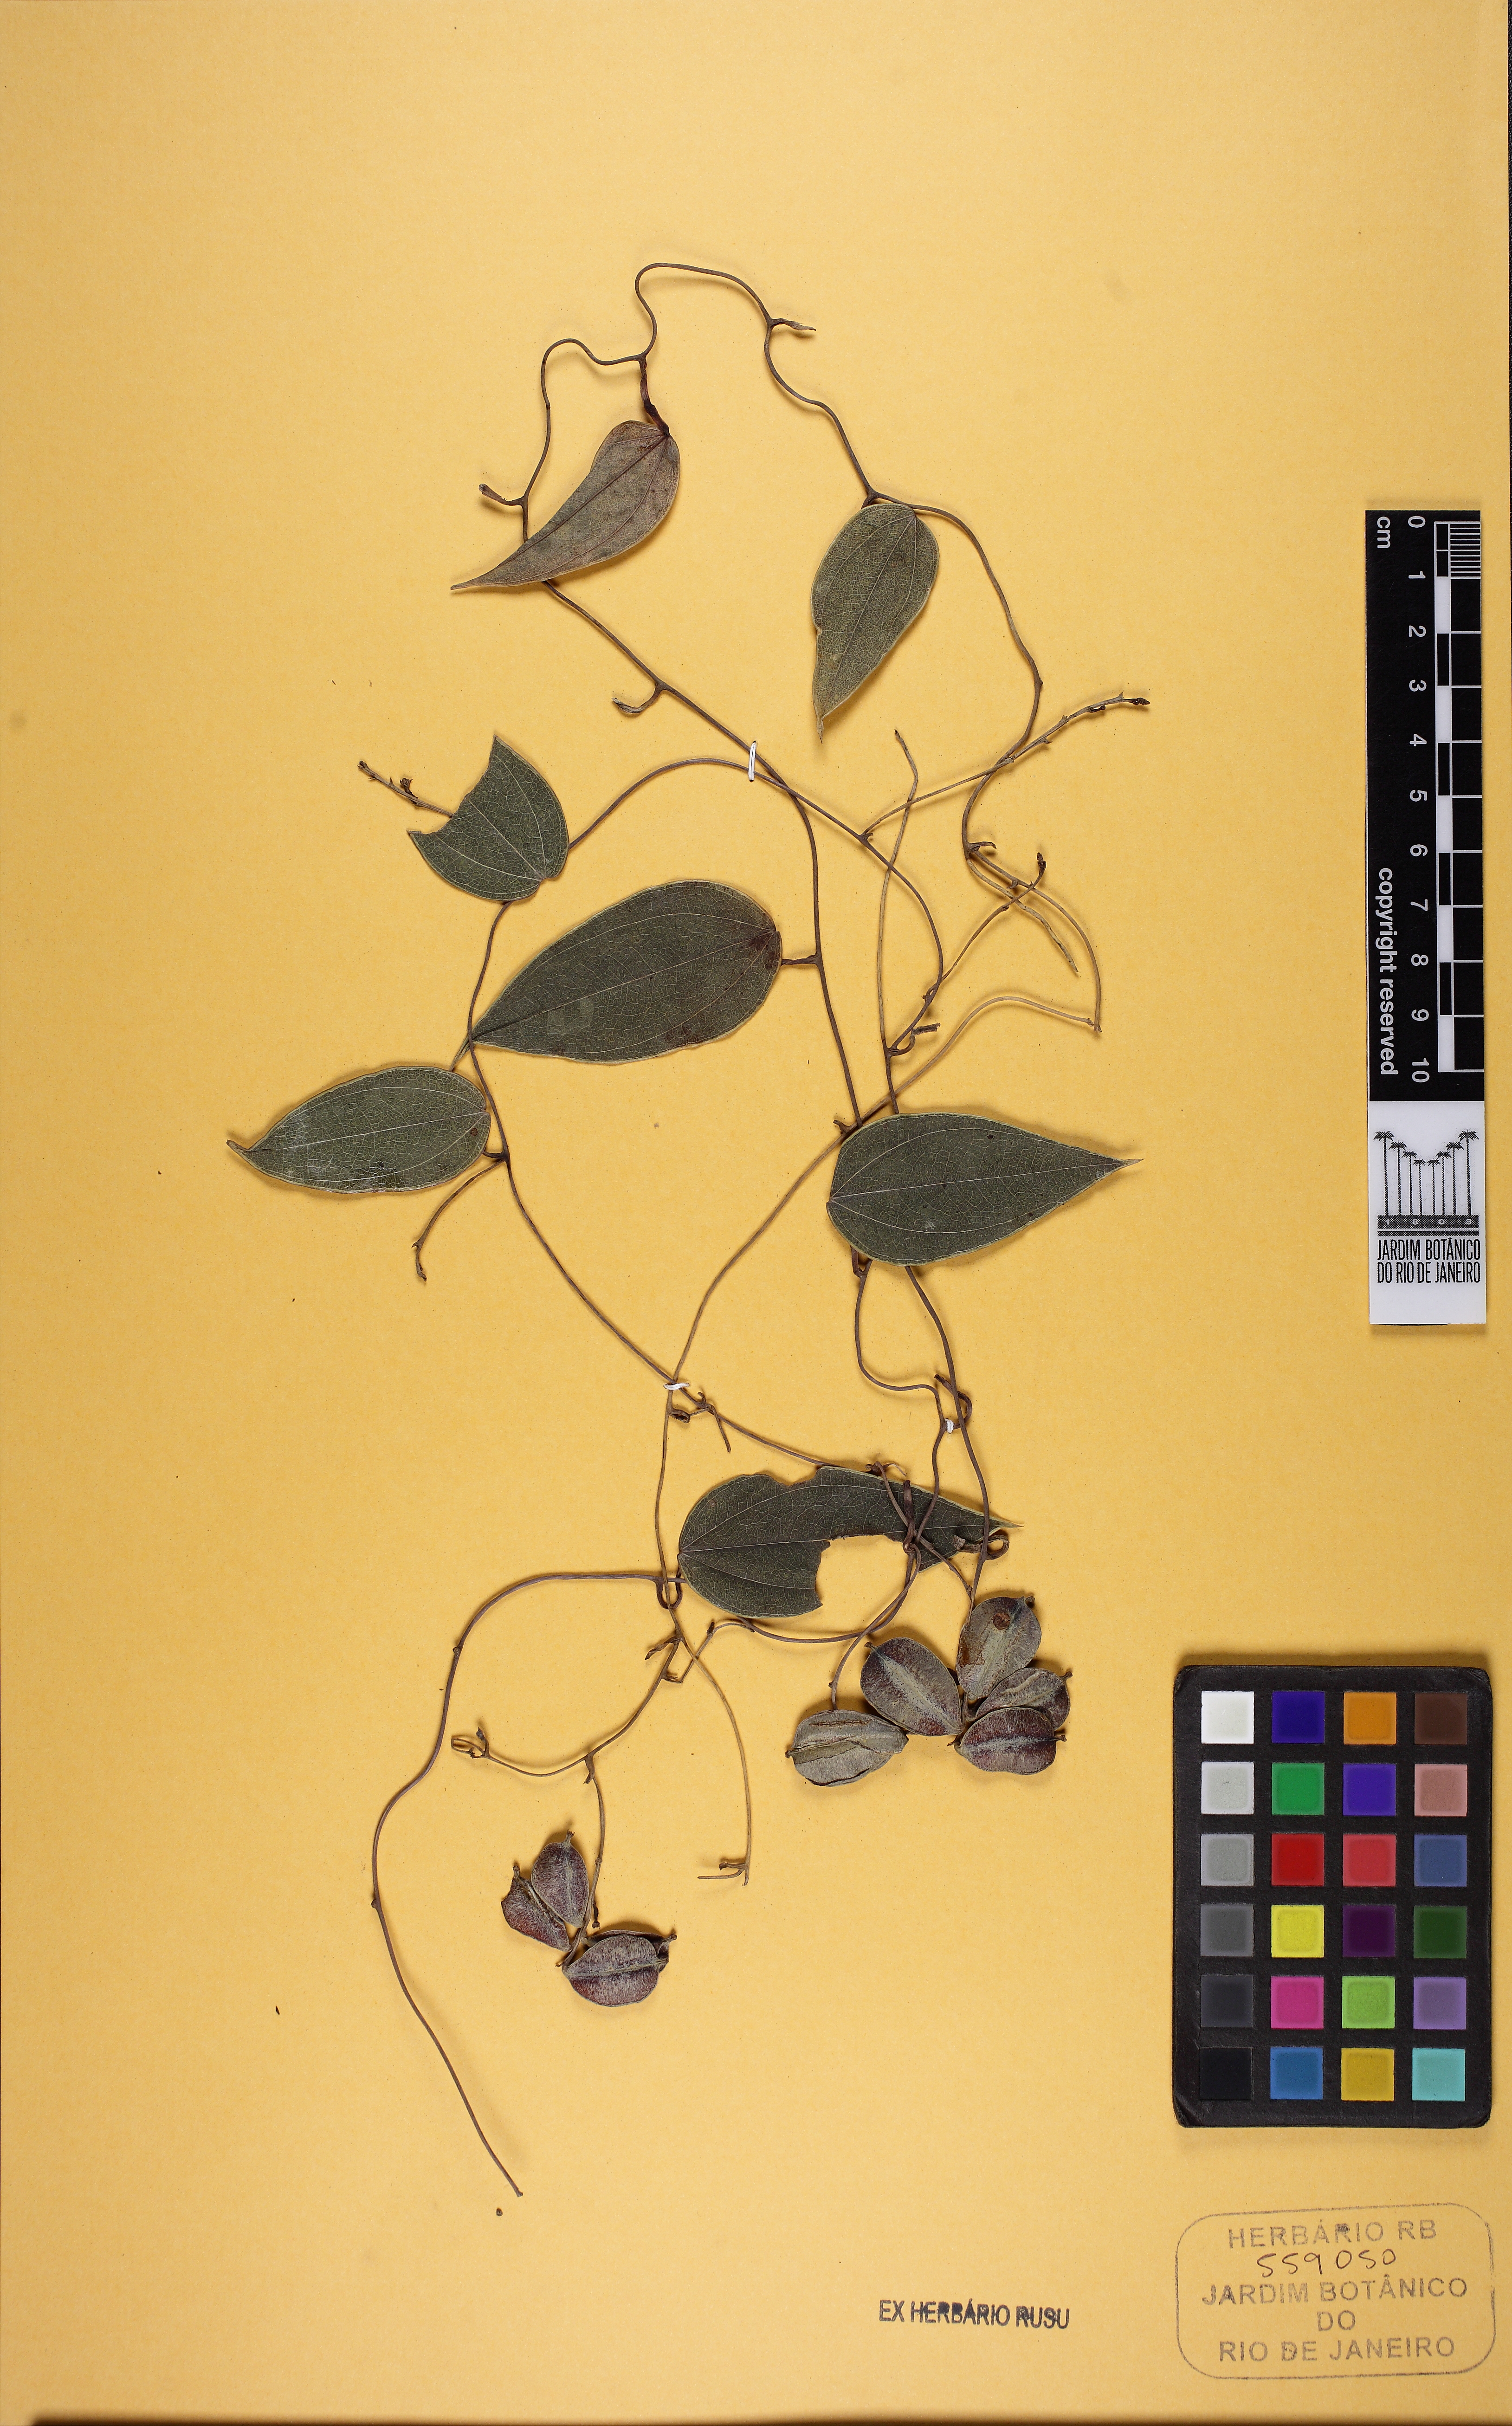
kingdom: Plantae
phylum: Tracheophyta
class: Liliopsida
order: Dioscoreales
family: Dioscoreaceae
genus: Dioscorea
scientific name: Dioscorea marginata
